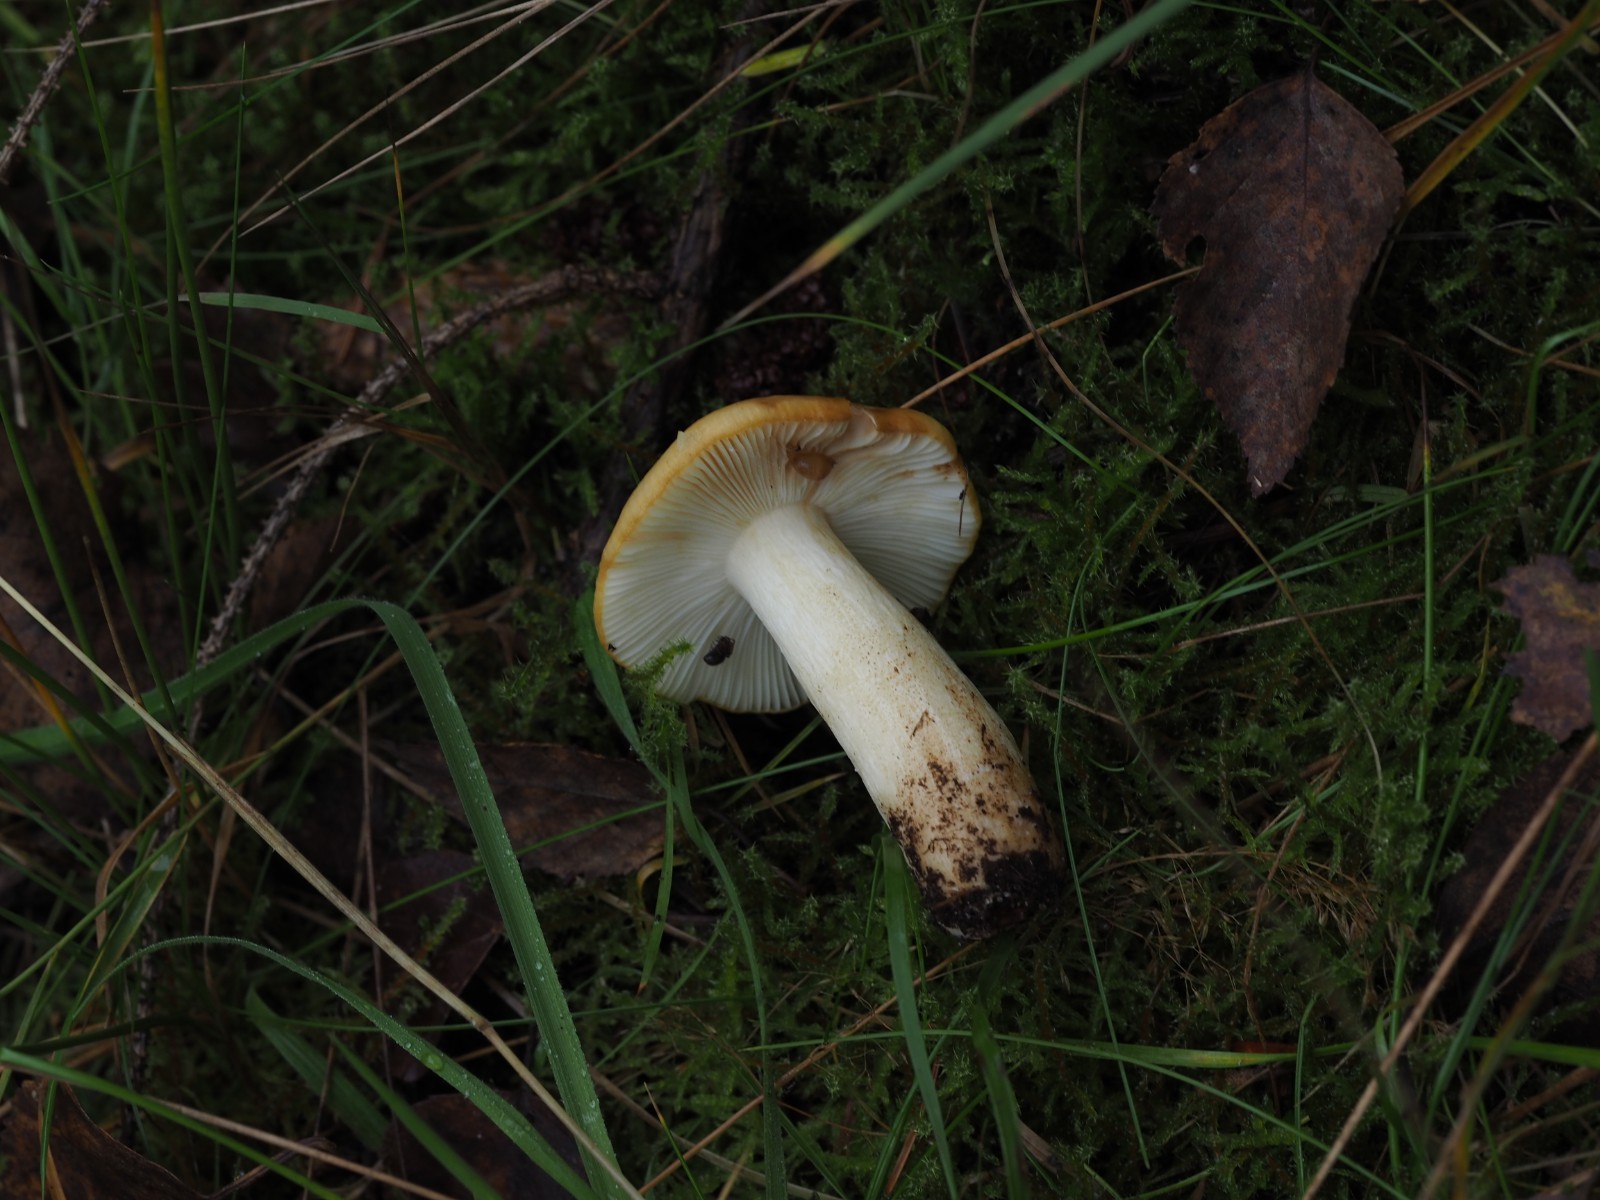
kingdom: Fungi
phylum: Basidiomycota
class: Agaricomycetes
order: Russulales
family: Russulaceae
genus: Russula
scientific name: Russula ochroleuca
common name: okkergul skørhat
